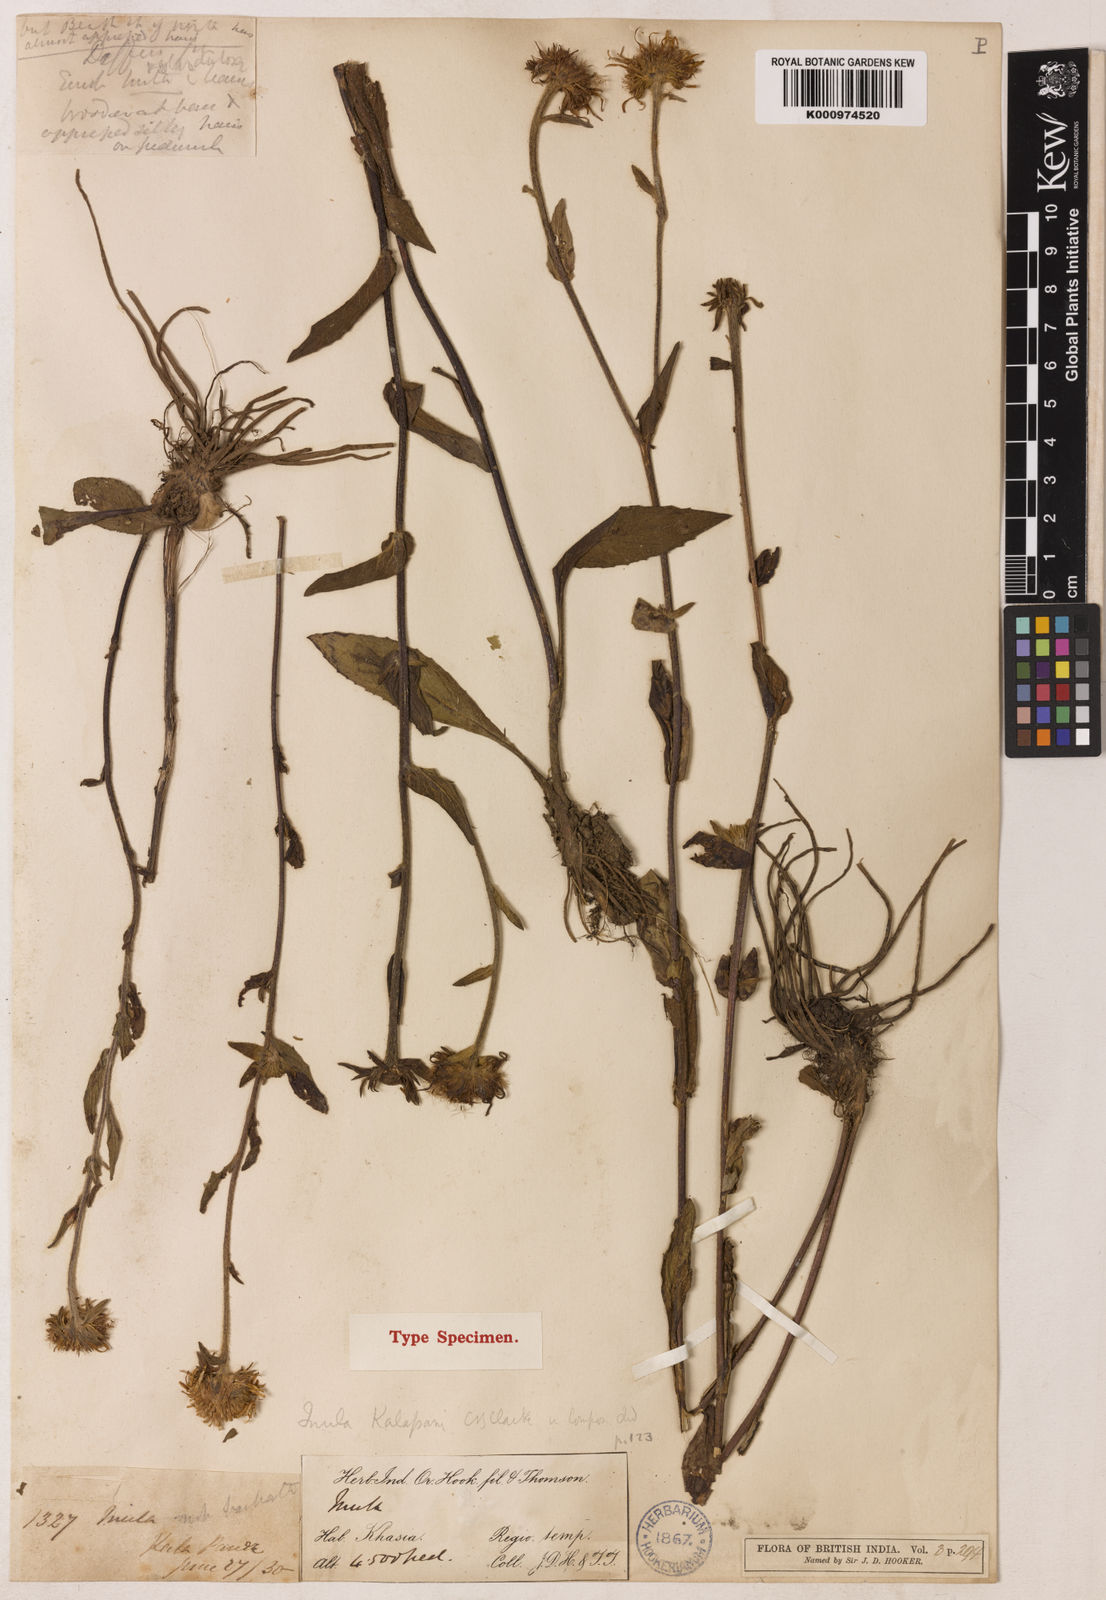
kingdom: Plantae
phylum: Tracheophyta
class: Magnoliopsida
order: Asterales
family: Asteraceae
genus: Inula
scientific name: Inula kalapani
